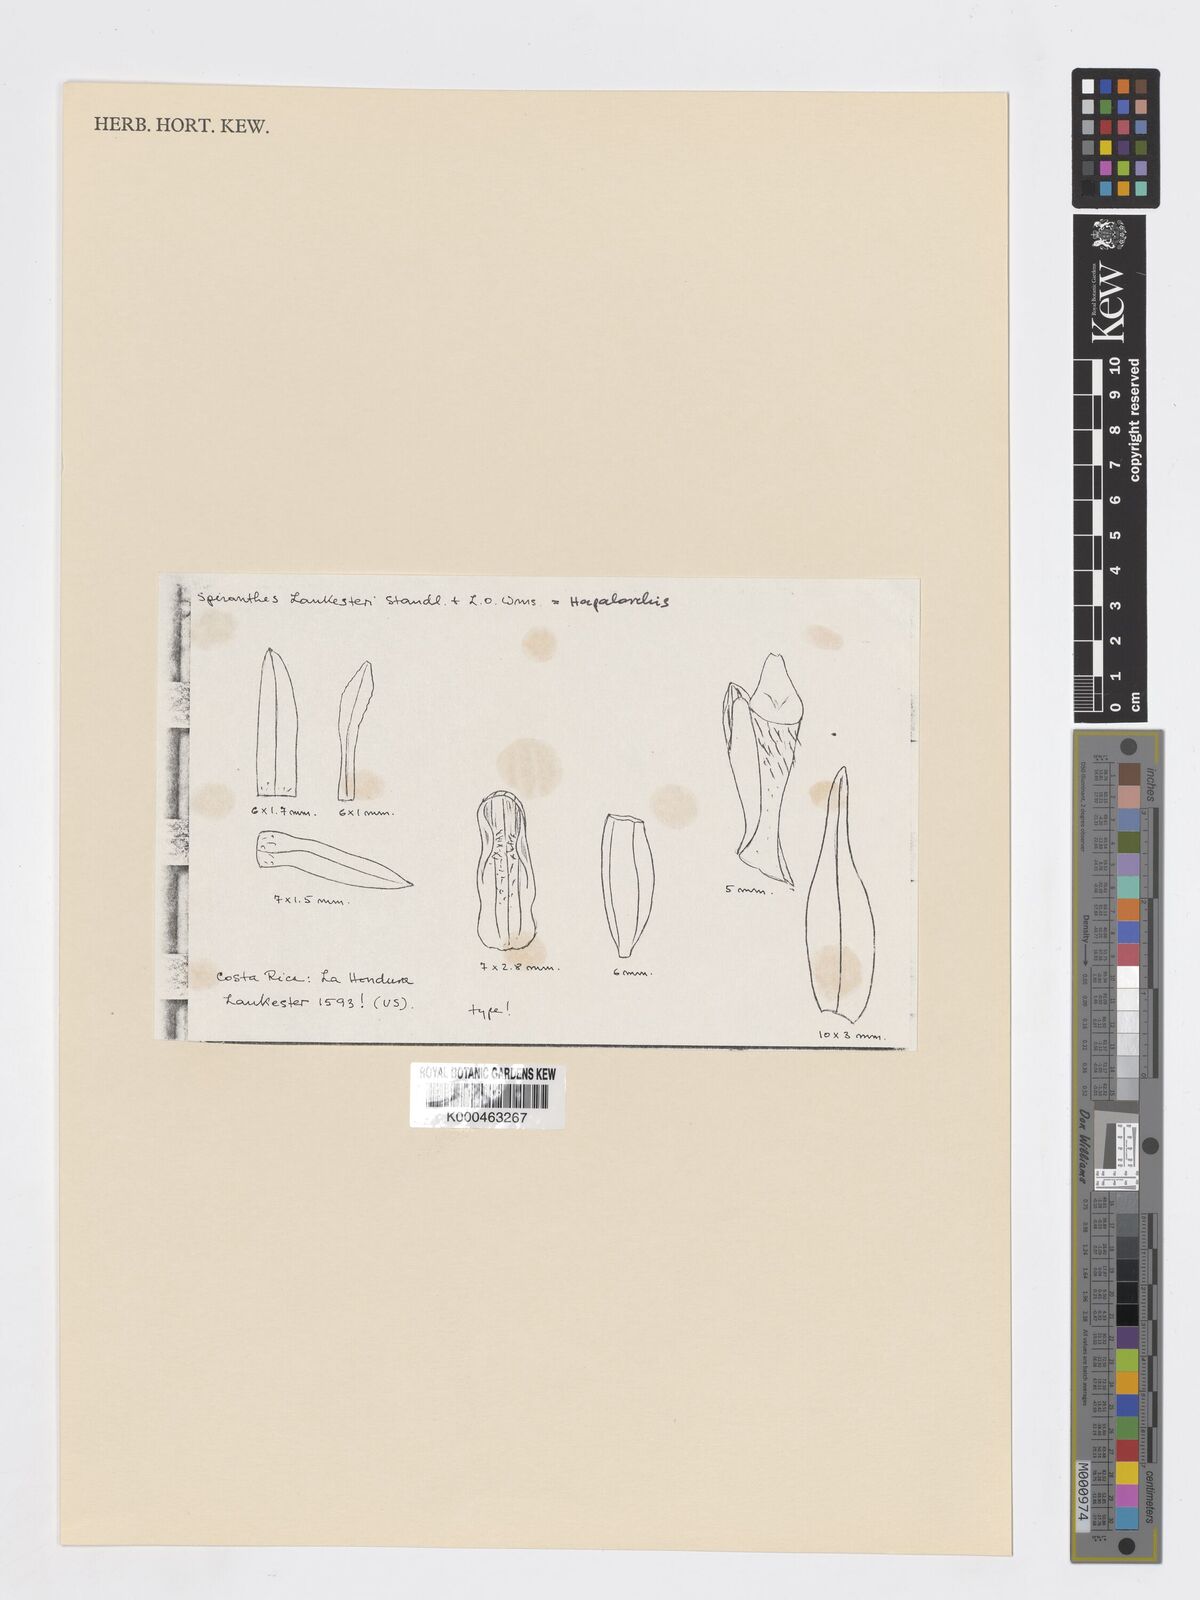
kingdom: Plantae
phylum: Tracheophyta
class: Liliopsida
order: Asparagales
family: Orchidaceae
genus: Hapalorchis
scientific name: Hapalorchis pumila
